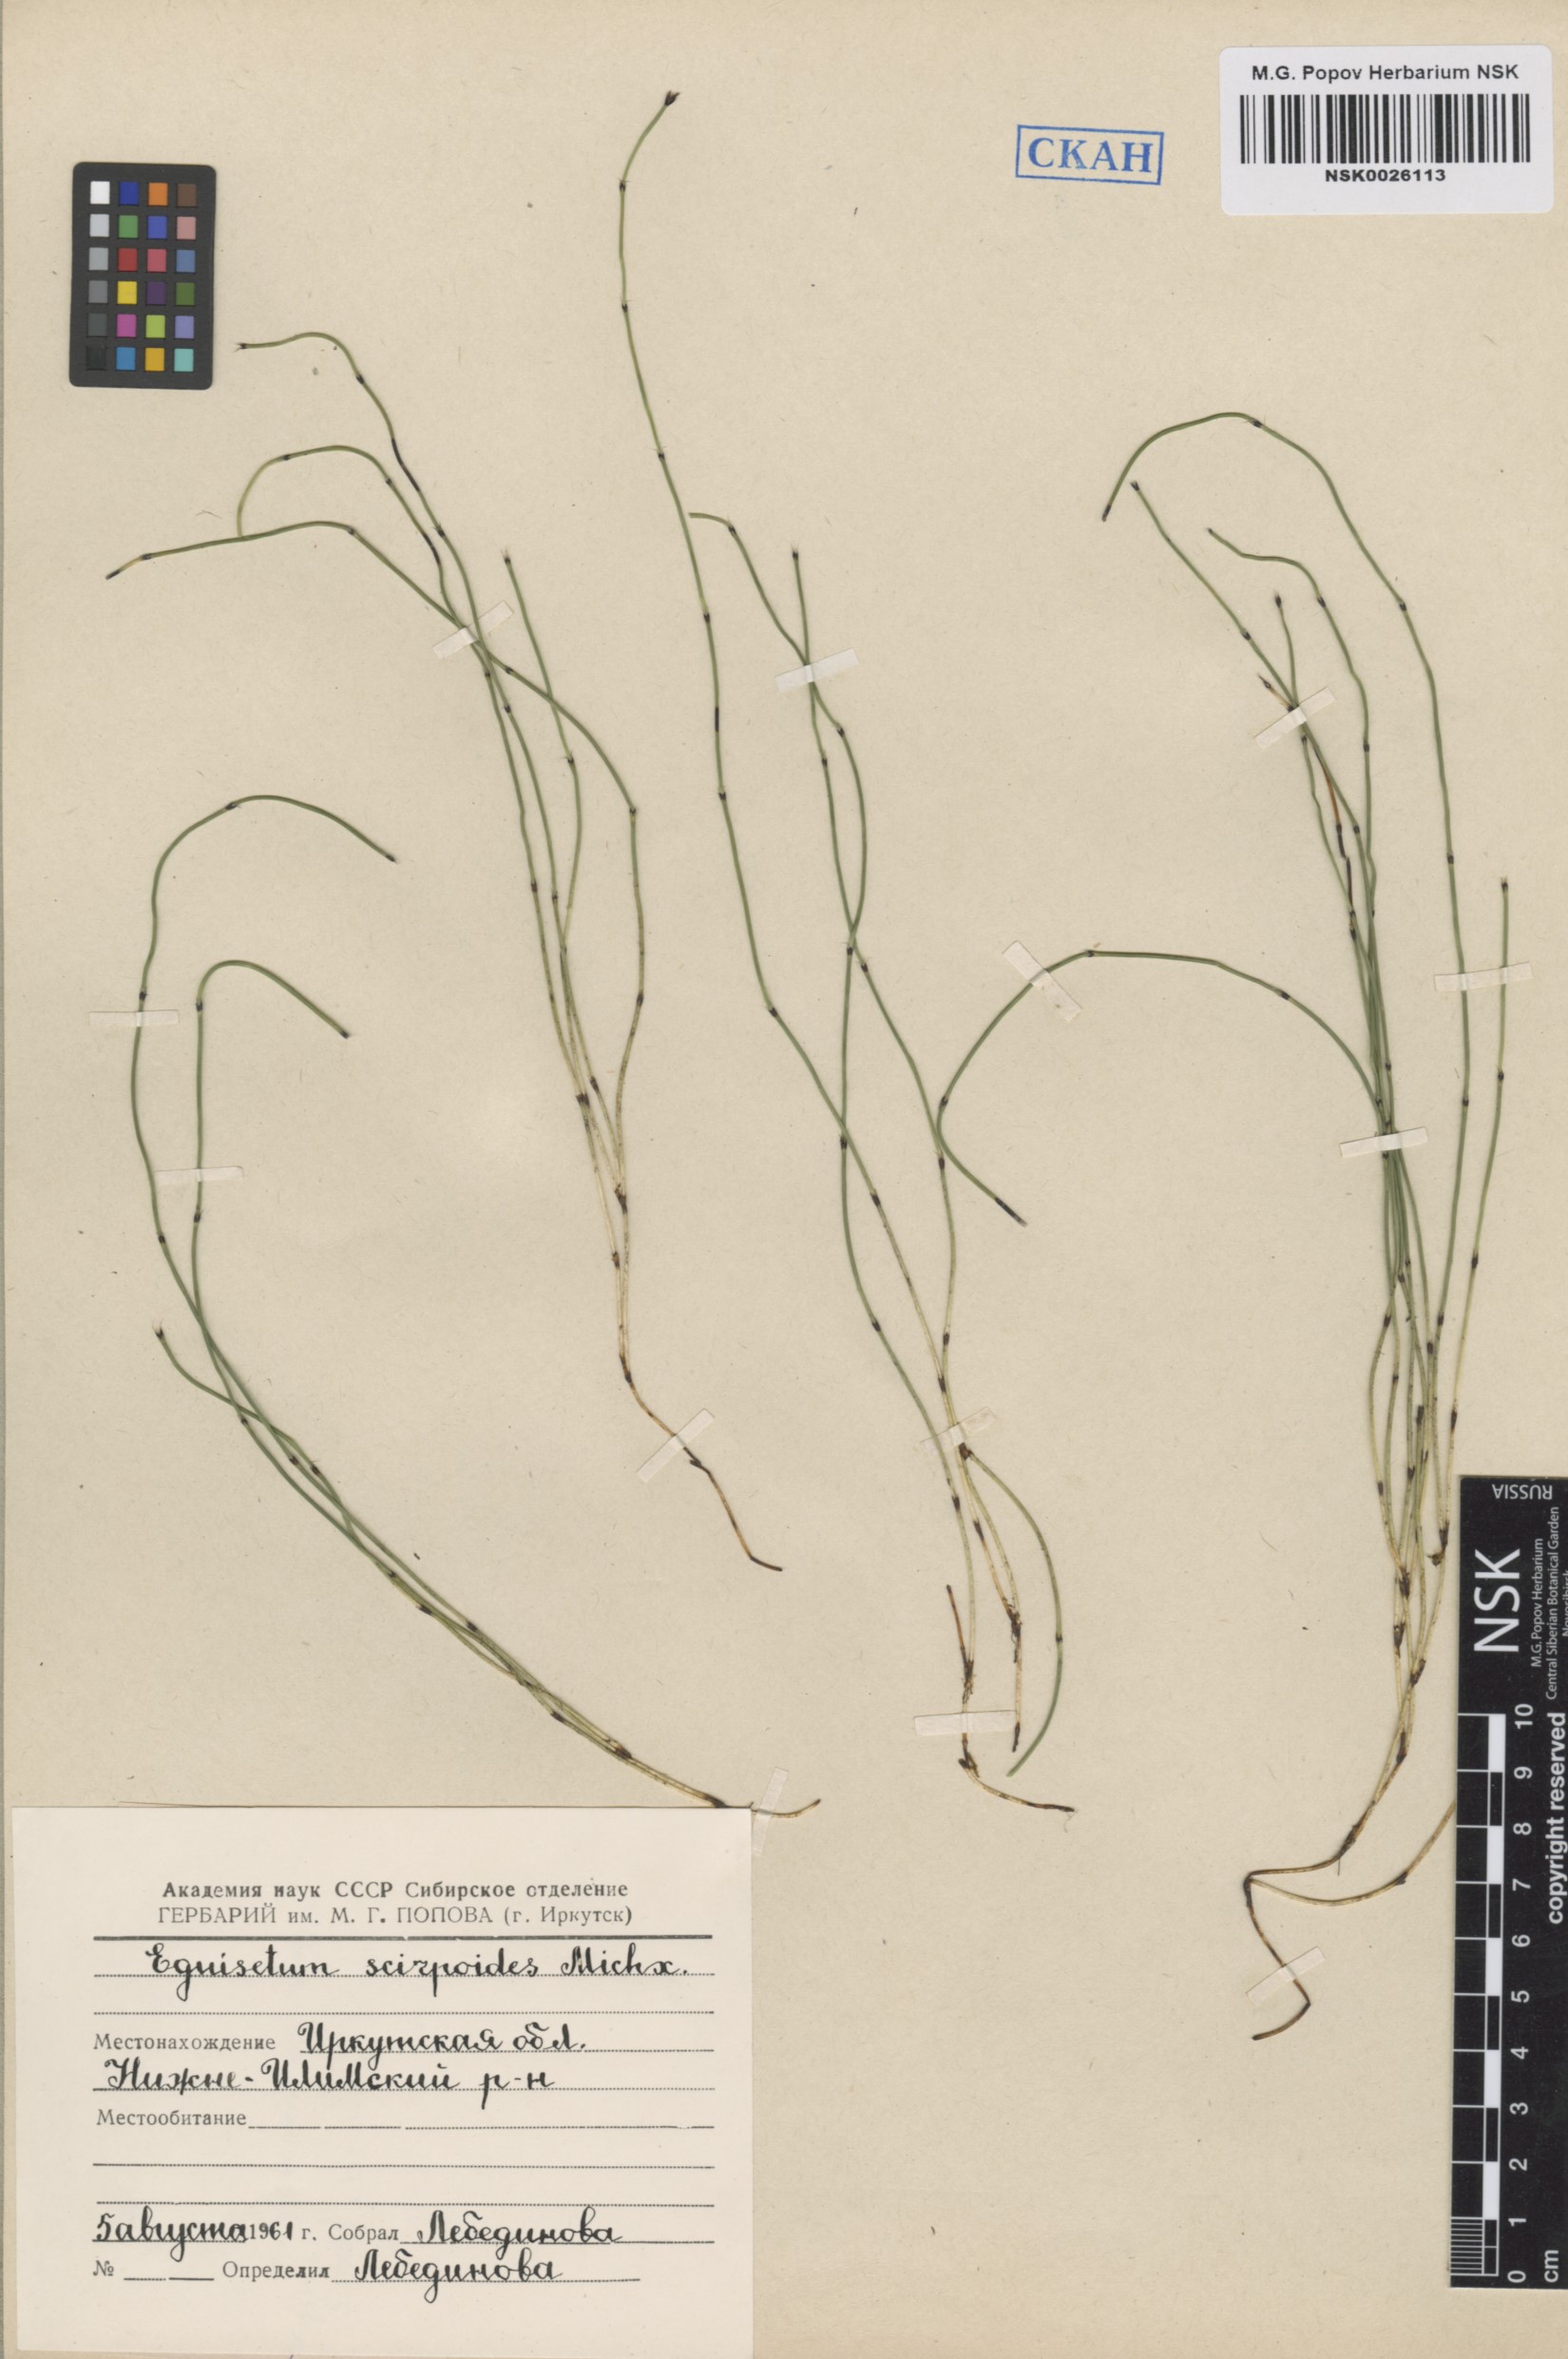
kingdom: Plantae
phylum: Tracheophyta
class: Polypodiopsida
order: Equisetales
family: Equisetaceae
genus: Equisetum
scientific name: Equisetum scirpoides
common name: Delicate horsetail
